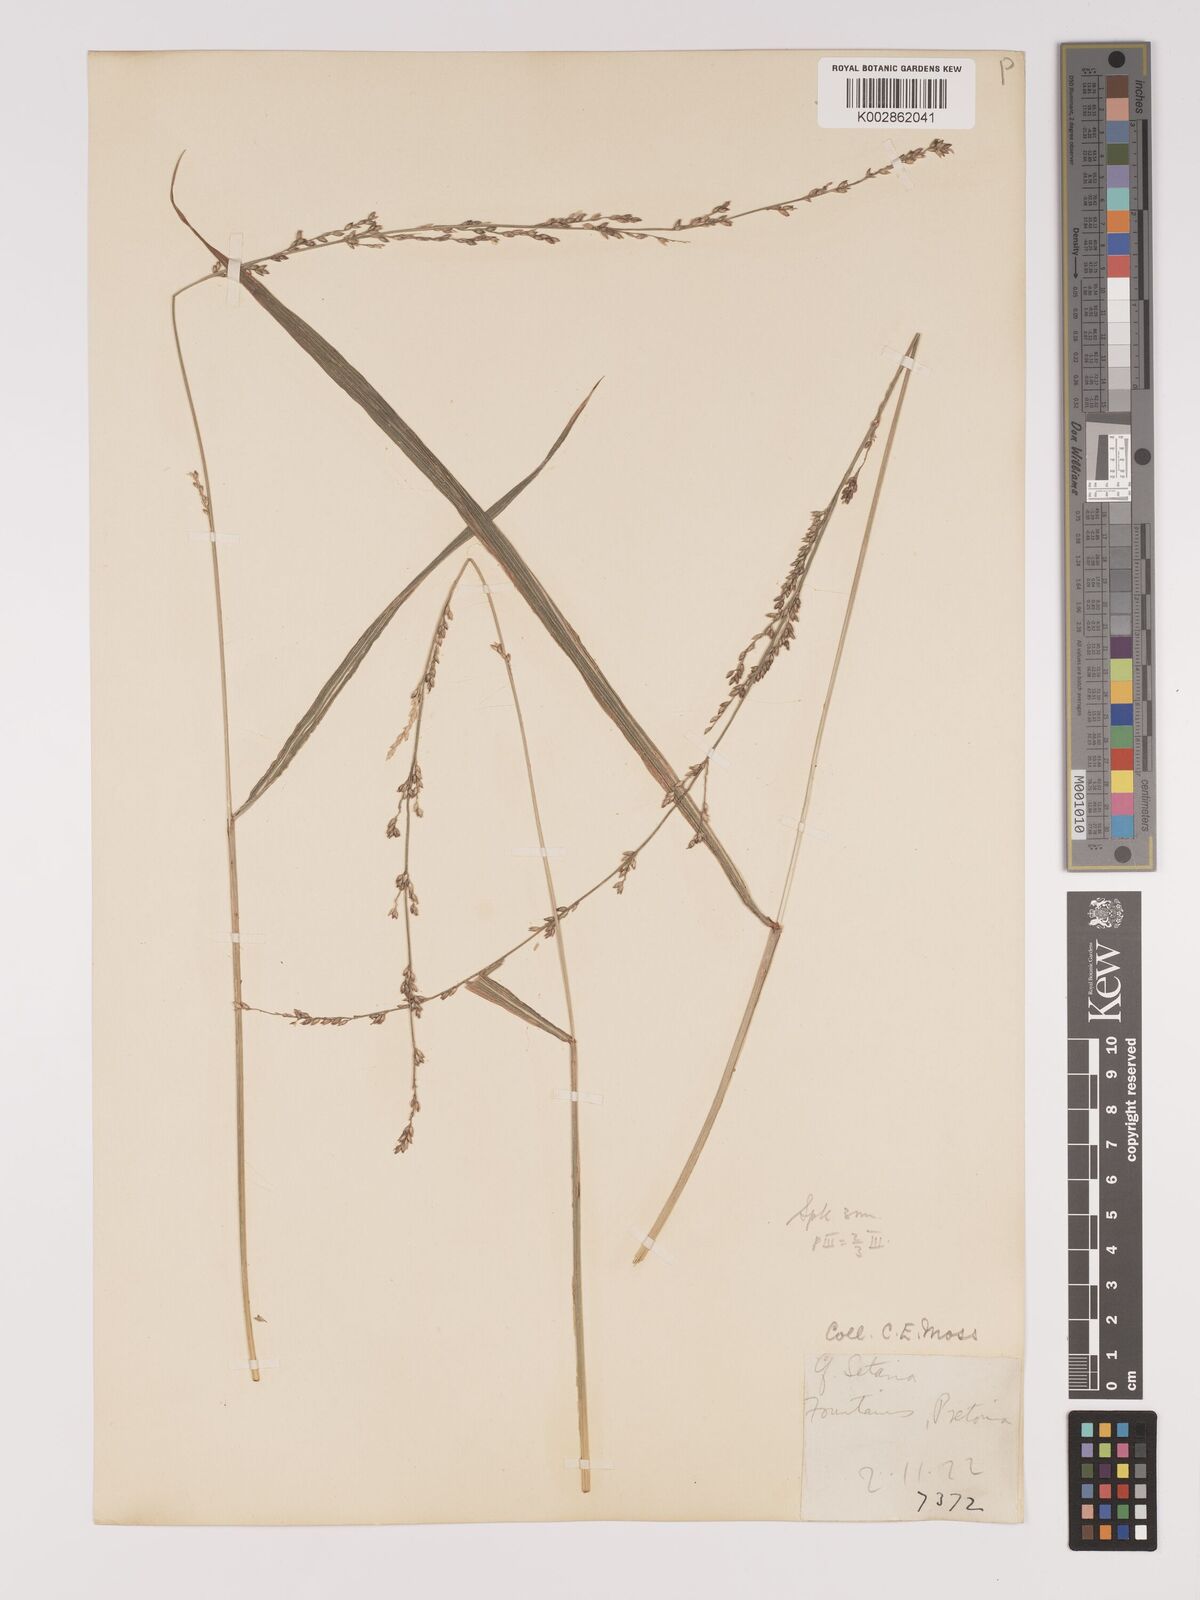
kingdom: Plantae
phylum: Tracheophyta
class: Liliopsida
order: Poales
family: Poaceae
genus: Setaria
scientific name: Setaria megaphylla
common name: Bigleaf bristlegrass
